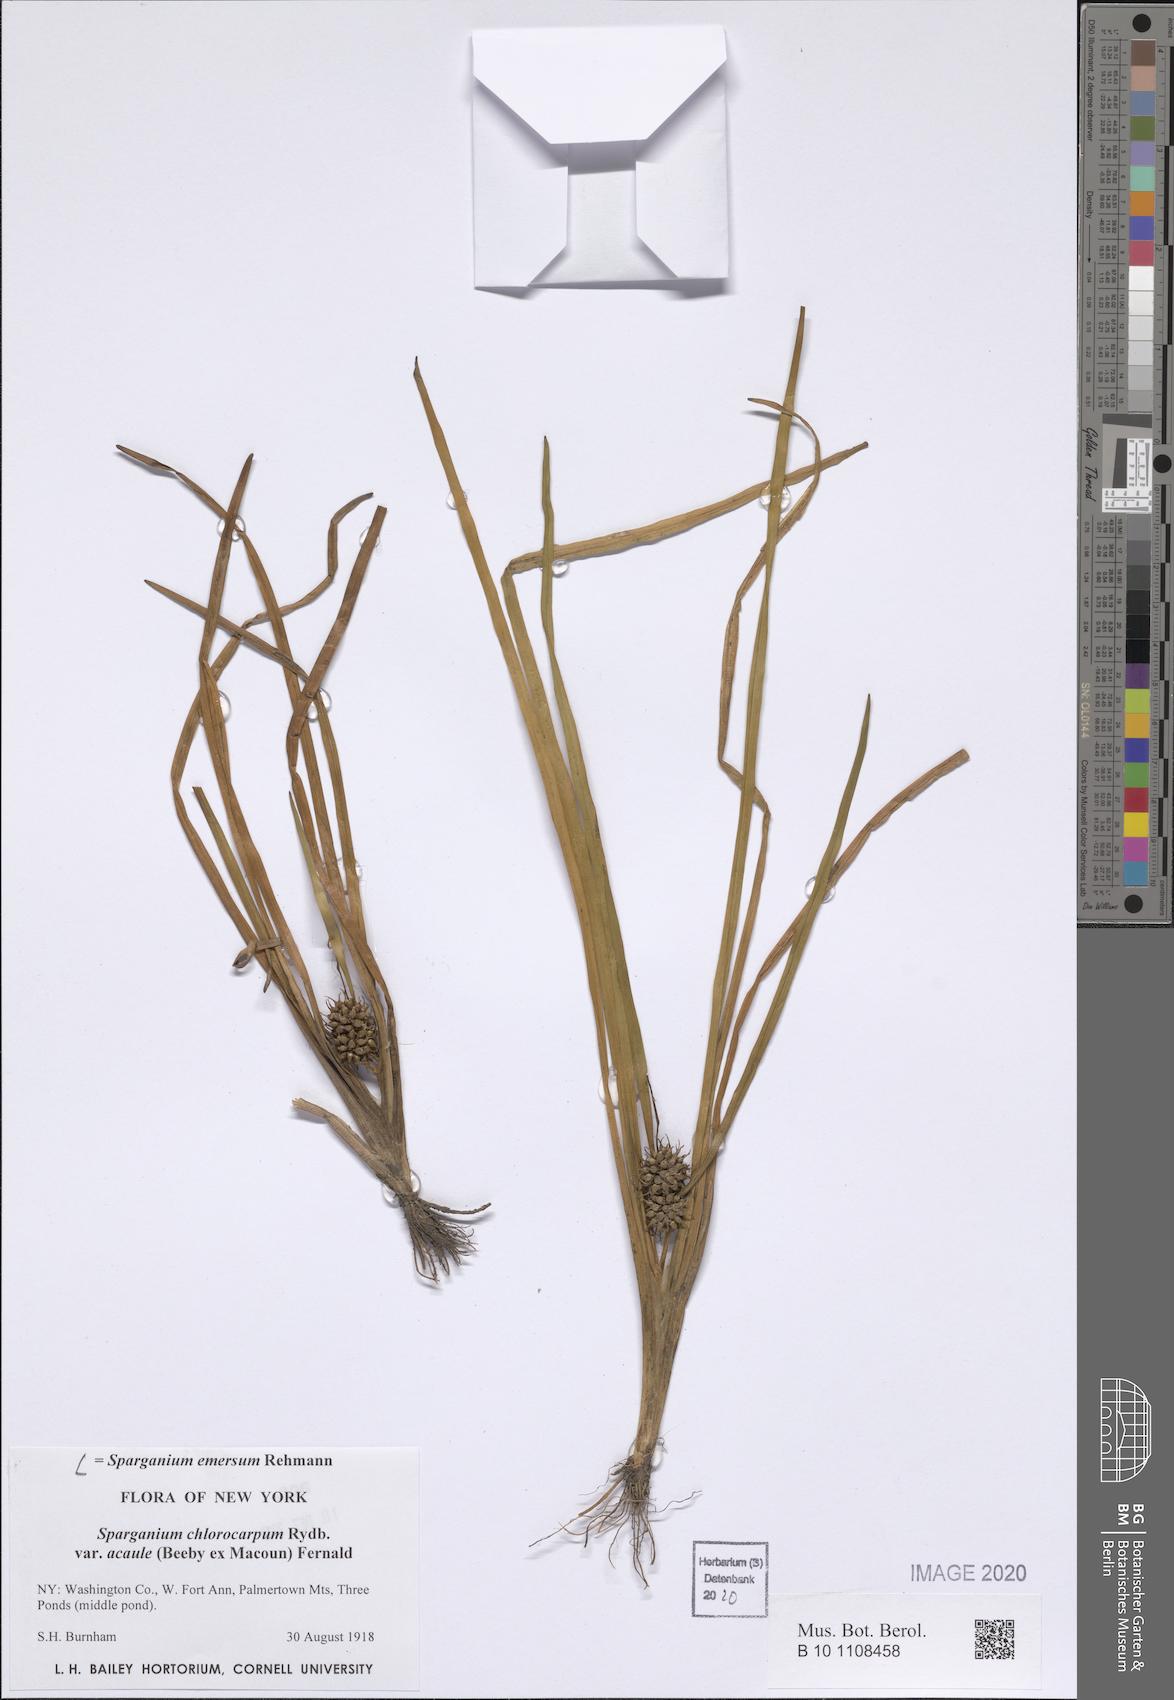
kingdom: Plantae
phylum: Tracheophyta
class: Liliopsida
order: Poales
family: Typhaceae
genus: Sparganium
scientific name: Sparganium emersum
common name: Unbranched bur-reed
